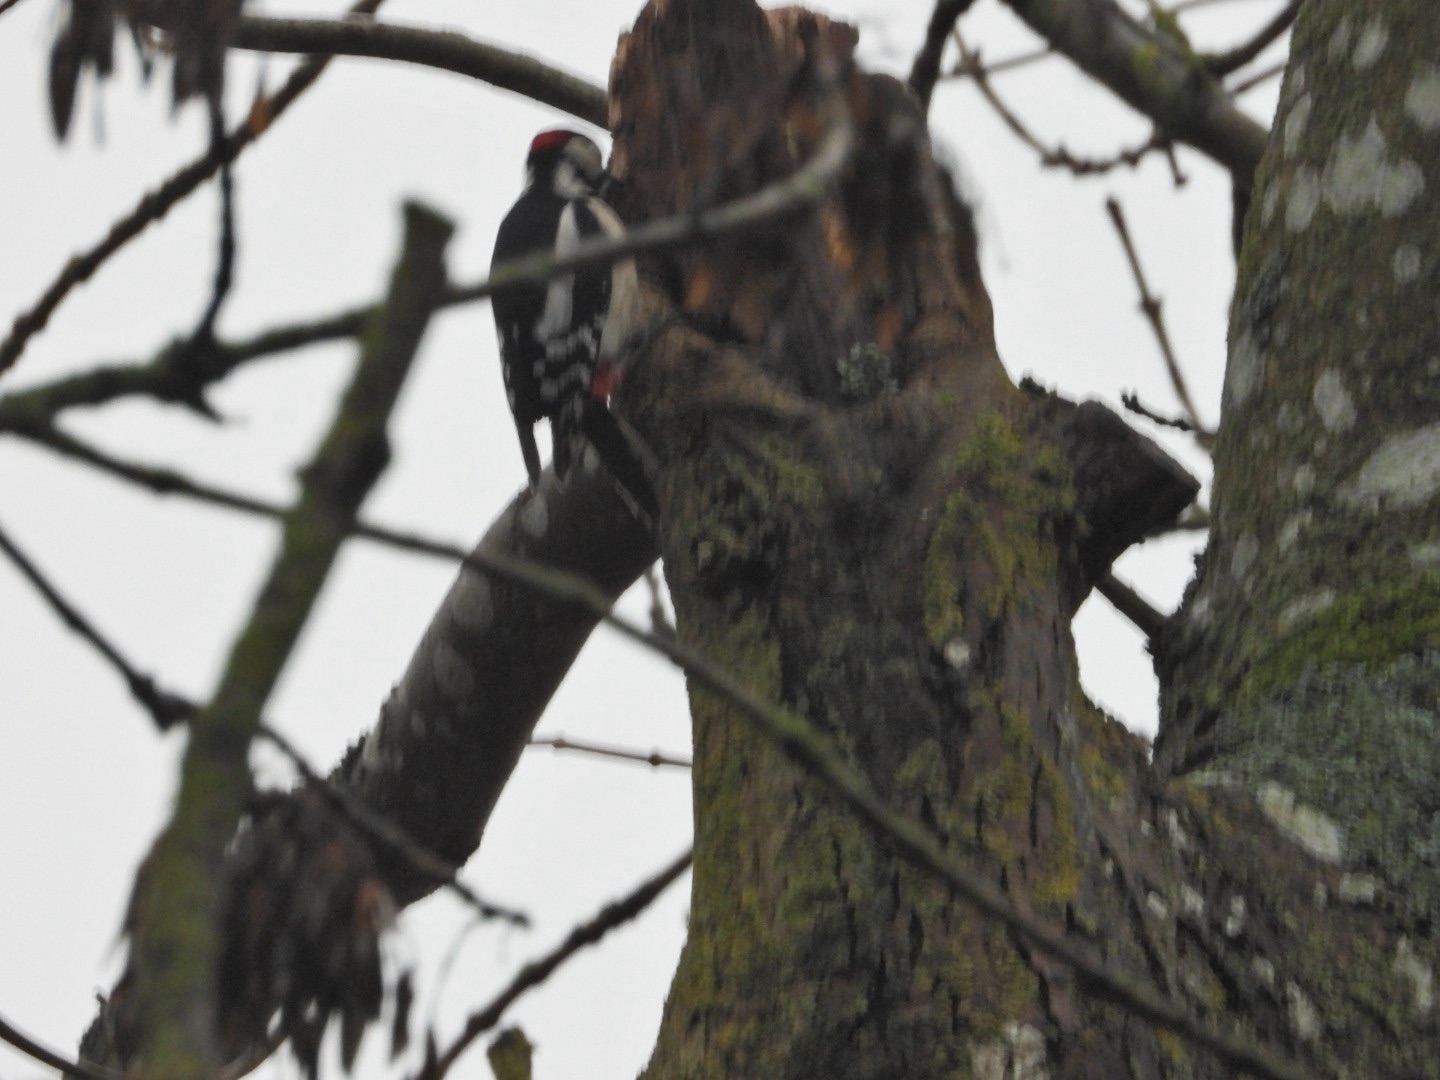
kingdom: Animalia
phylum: Chordata
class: Aves
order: Piciformes
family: Picidae
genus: Dendrocopos
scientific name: Dendrocopos major
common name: Stor flagspætte
